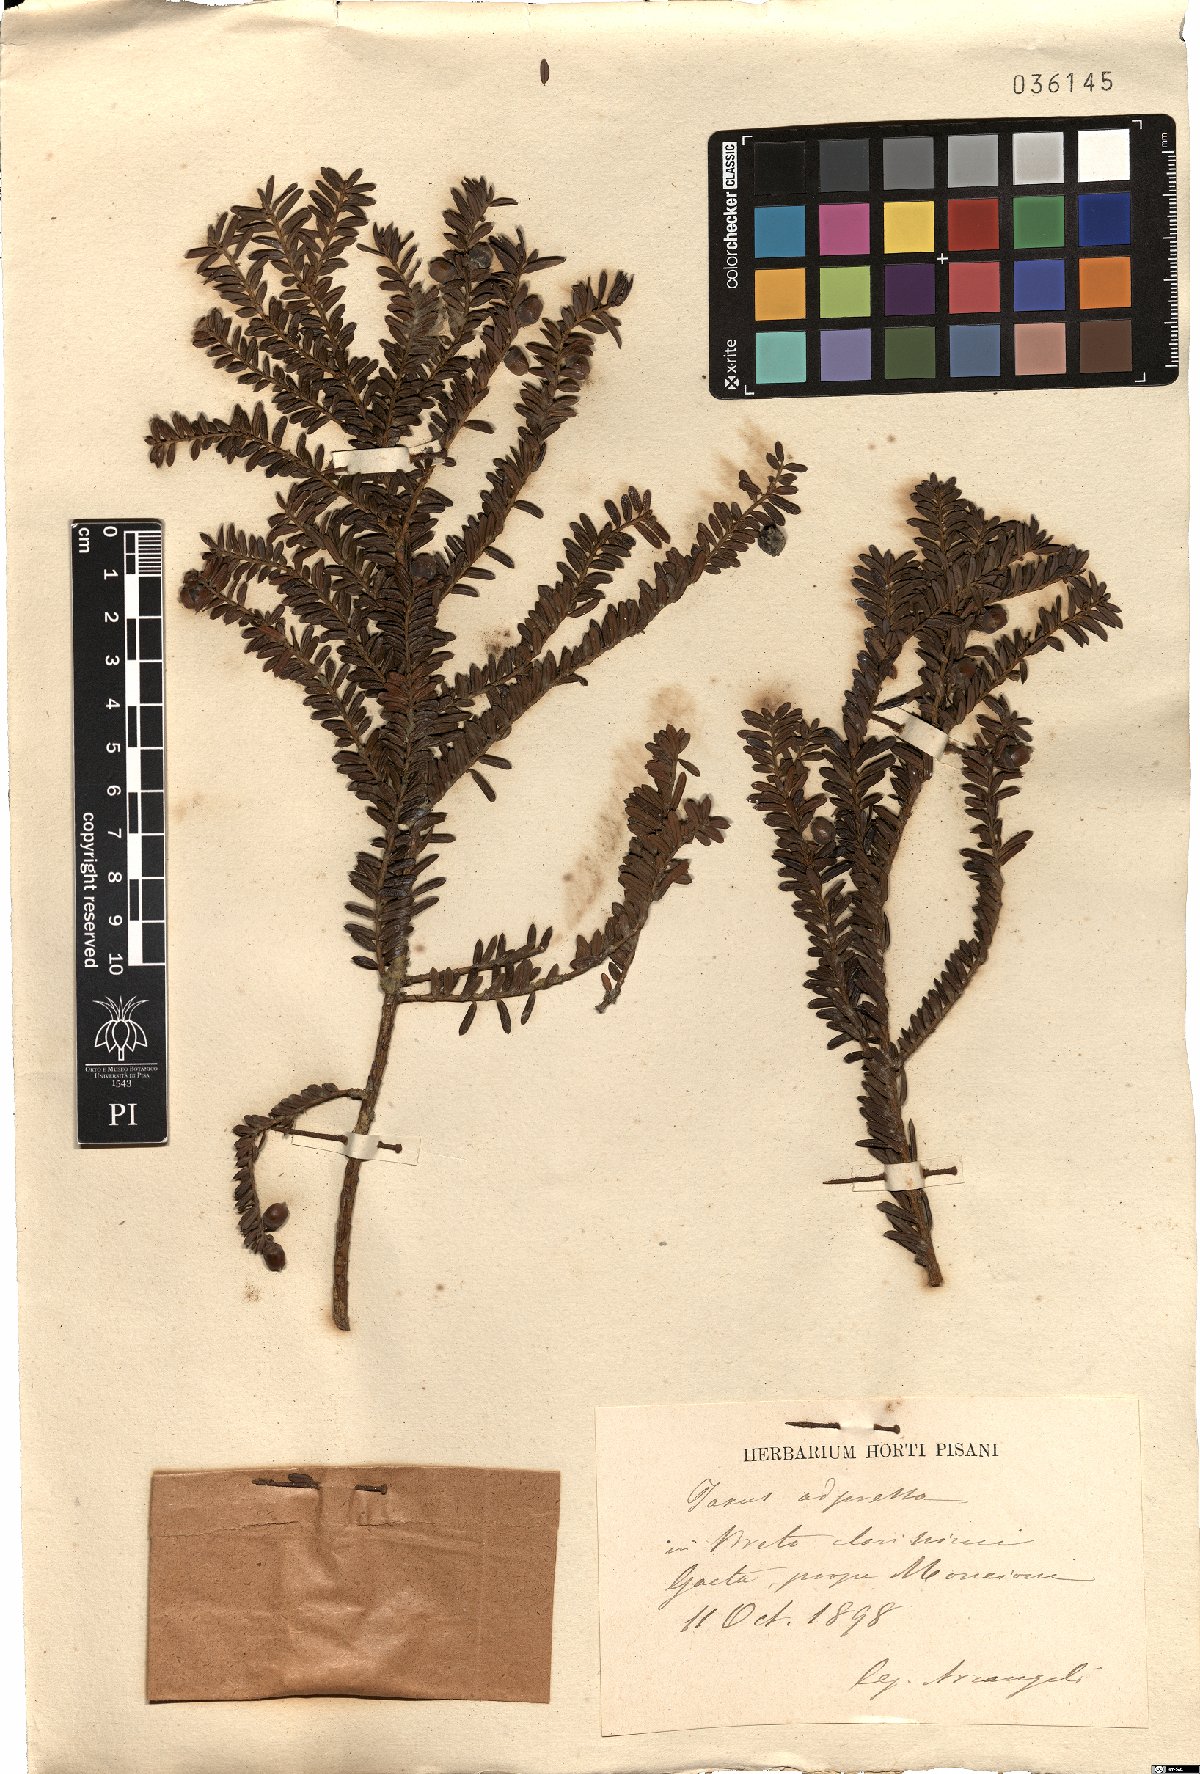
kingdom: Plantae
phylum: Tracheophyta
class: Pinopsida
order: Pinales
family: Taxaceae
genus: Taxus
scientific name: Taxus baccata
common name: Yew
